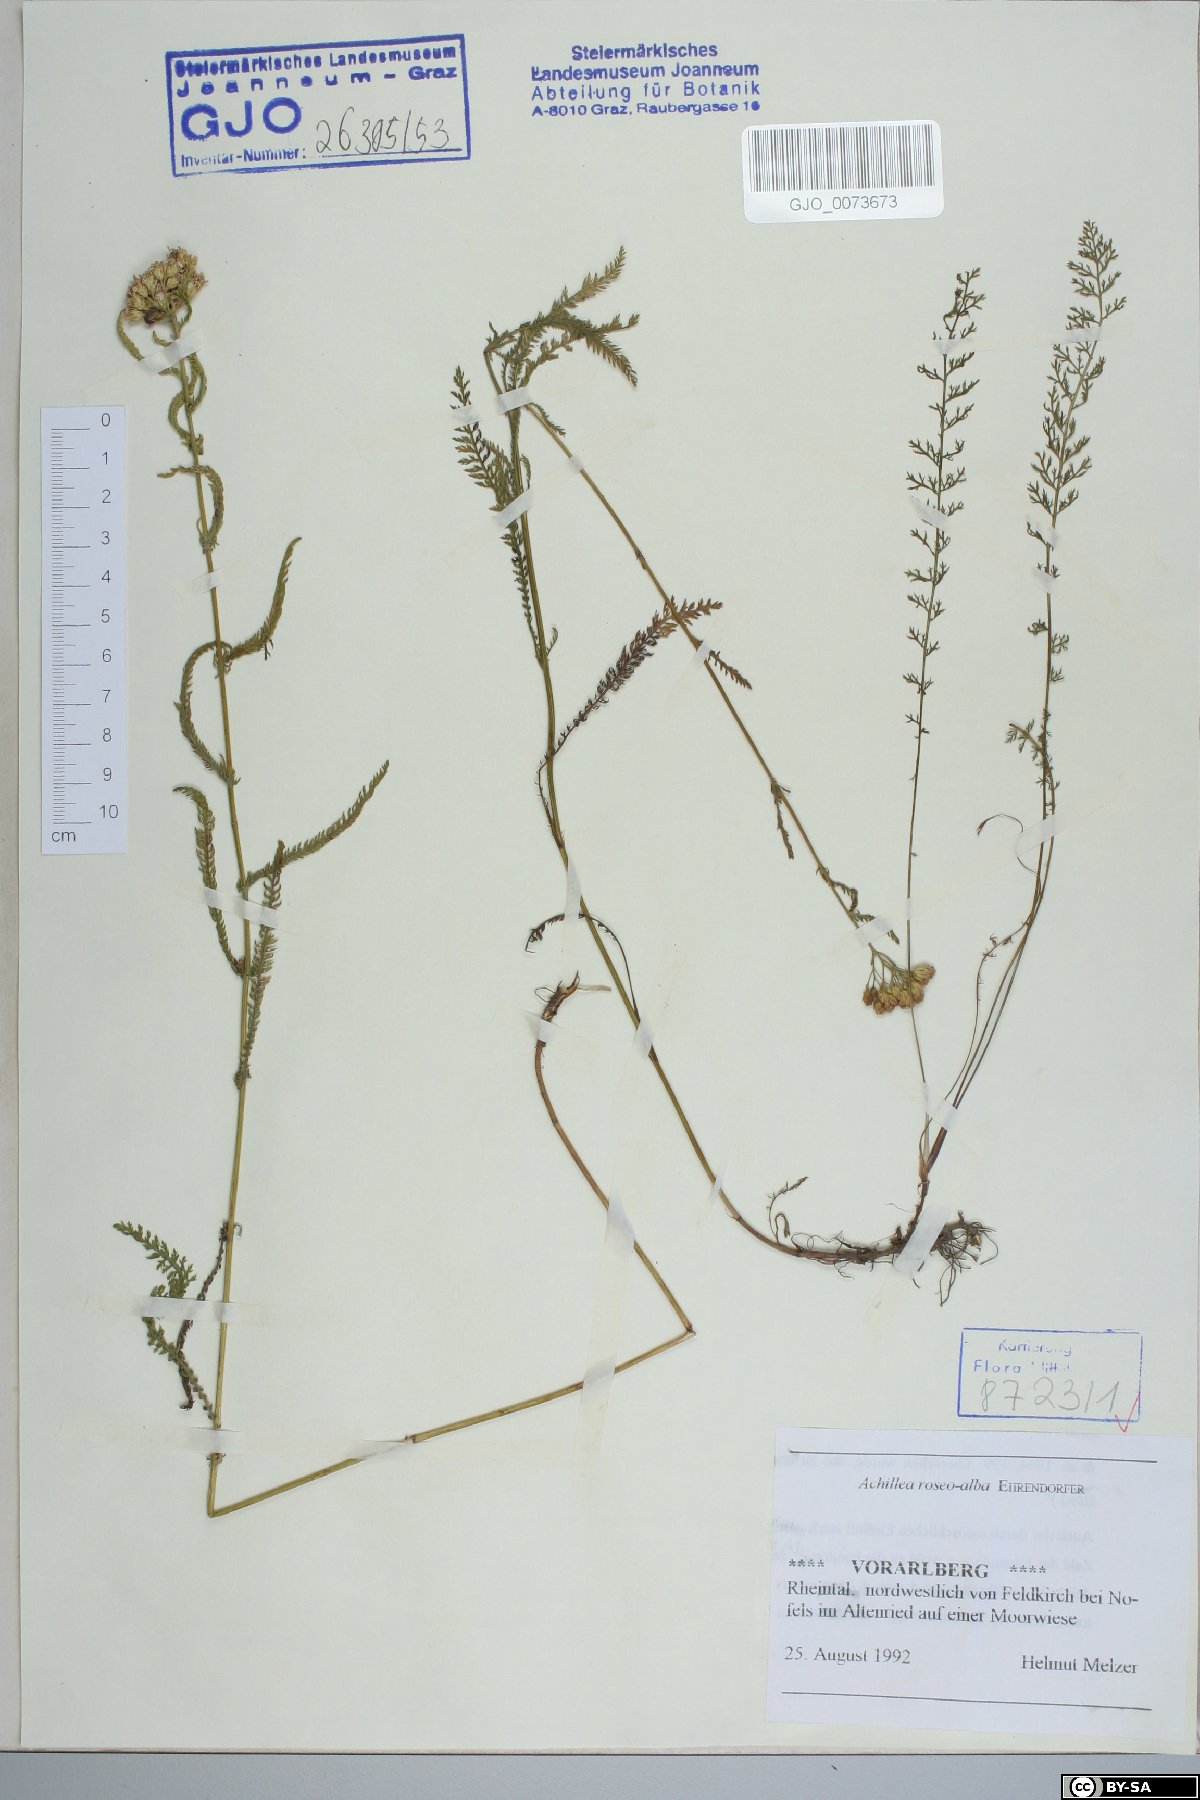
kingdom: Plantae
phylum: Tracheophyta
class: Magnoliopsida
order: Asterales
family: Asteraceae
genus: Achillea
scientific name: Achillea roseoalba
